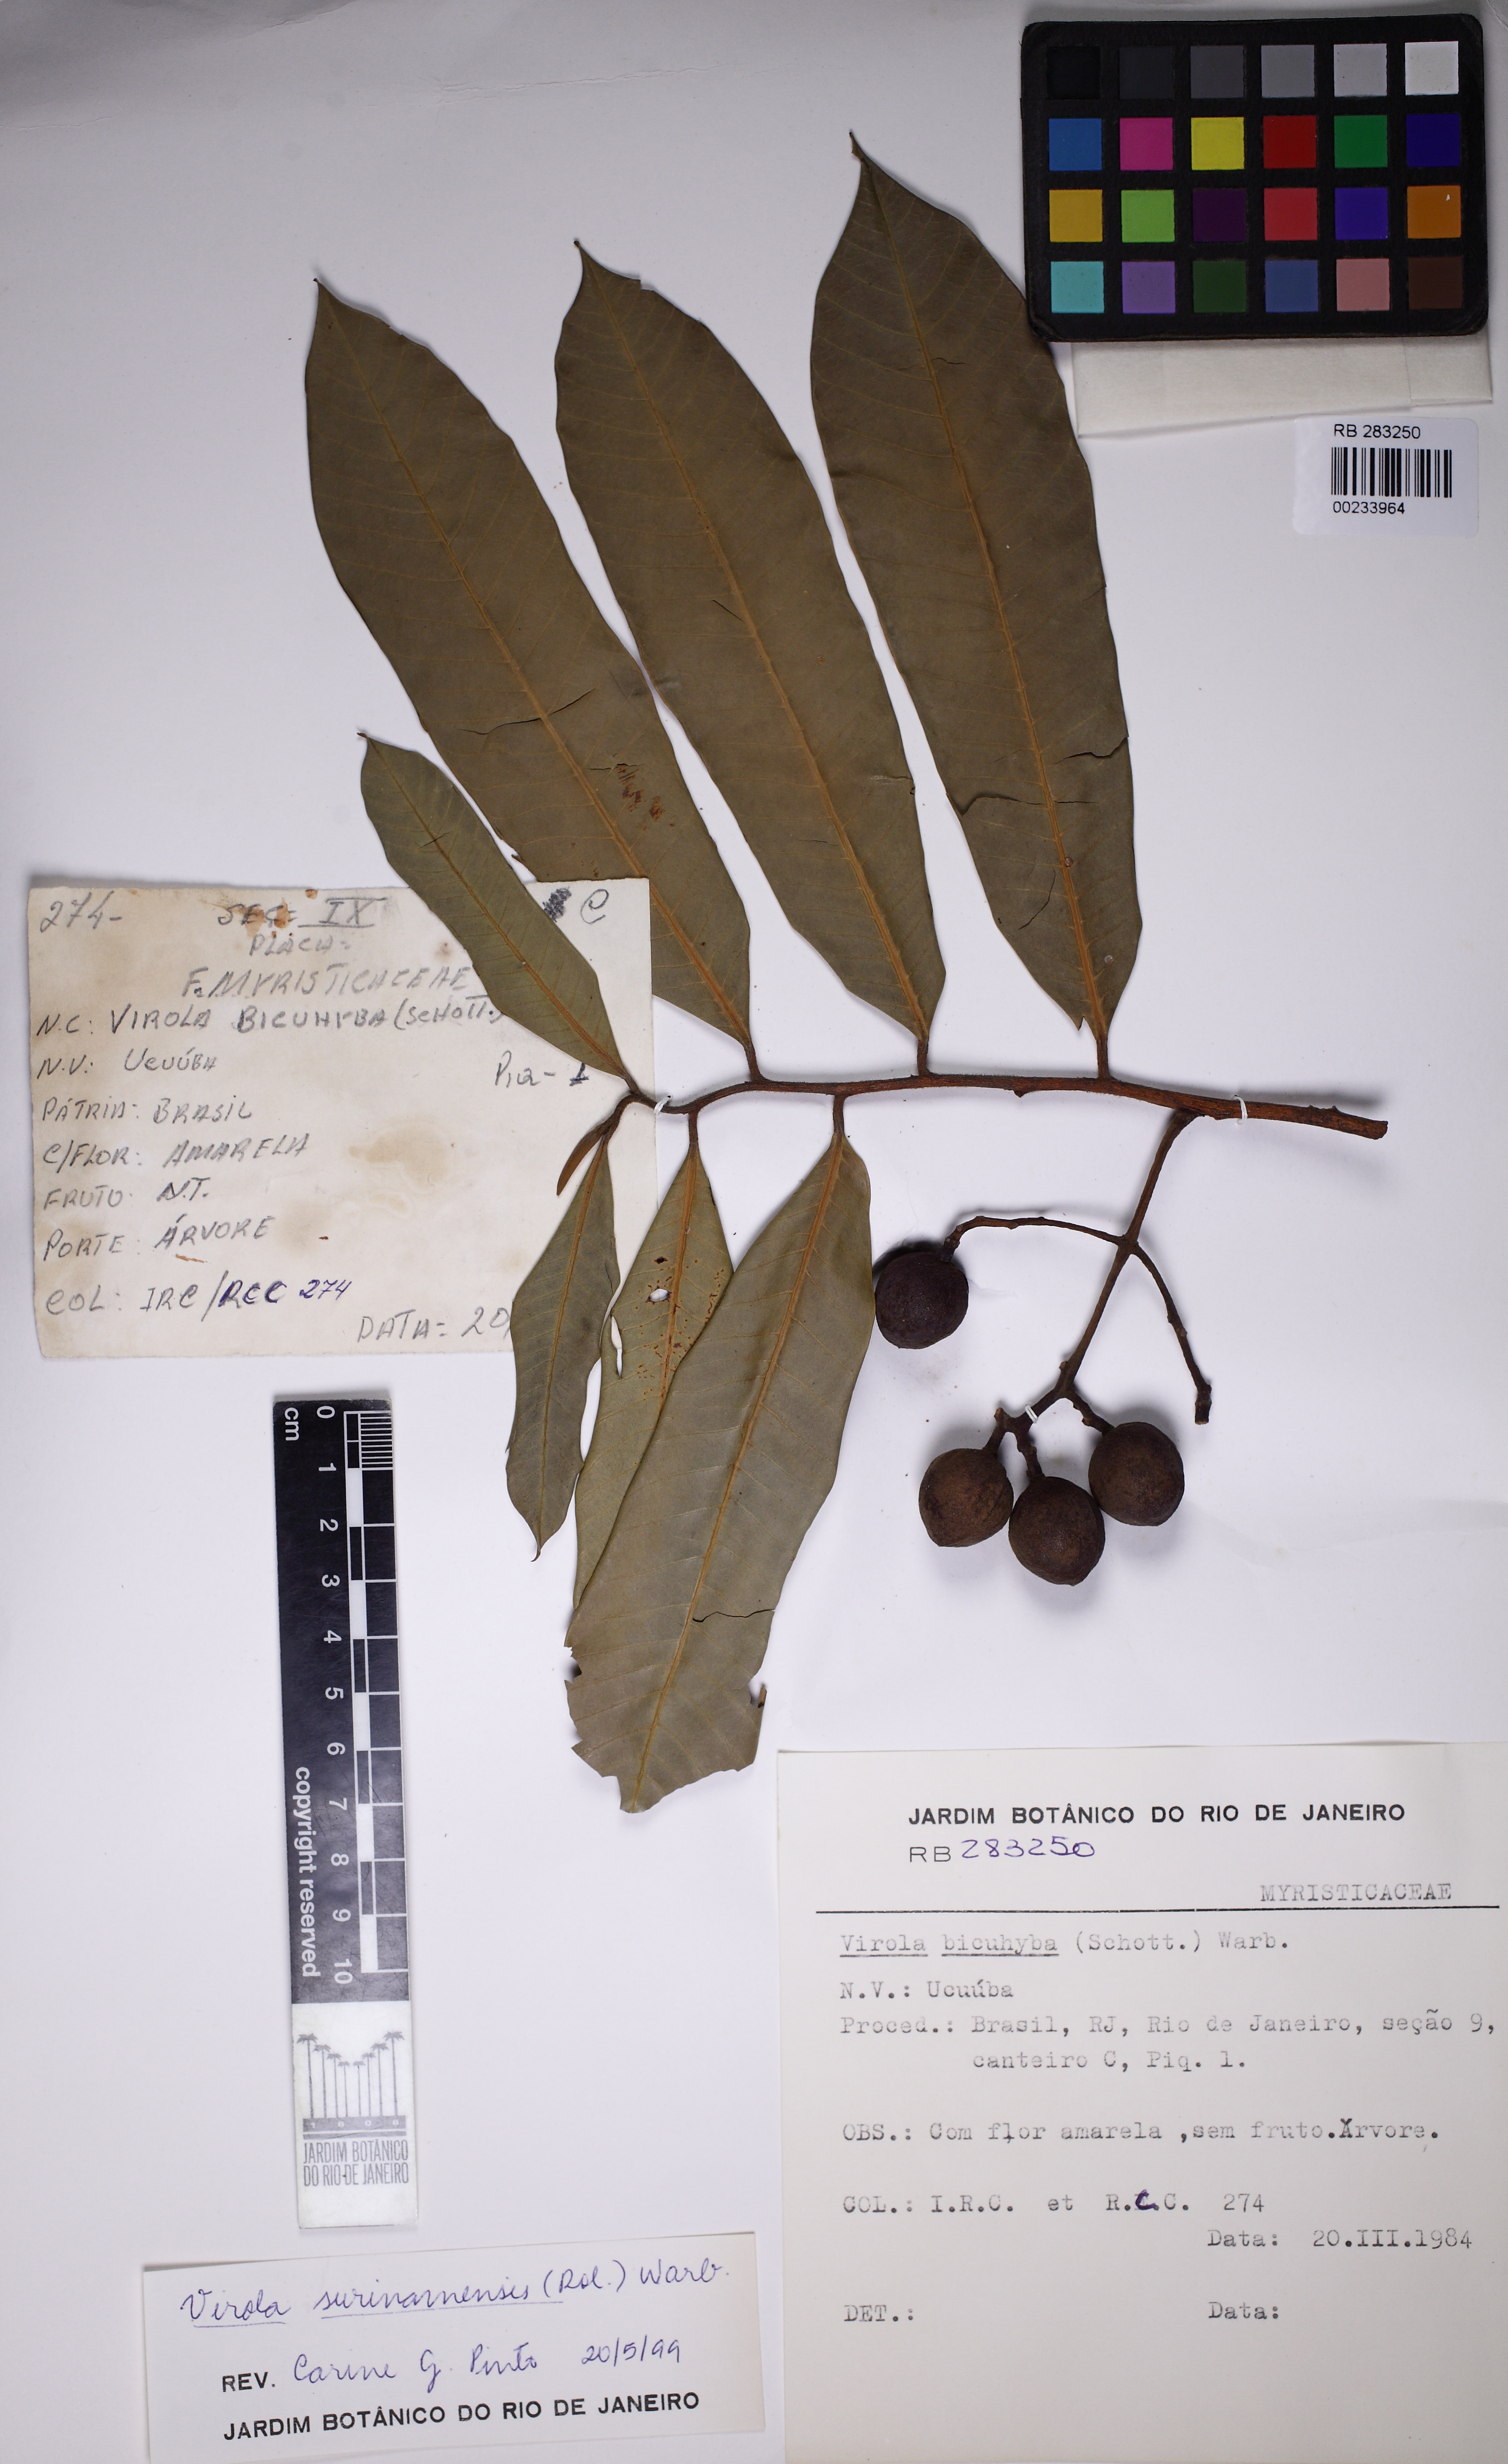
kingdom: Plantae
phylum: Tracheophyta
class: Magnoliopsida
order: Magnoliales
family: Myristicaceae
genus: Virola
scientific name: Virola surinamensis
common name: Baboonwood
